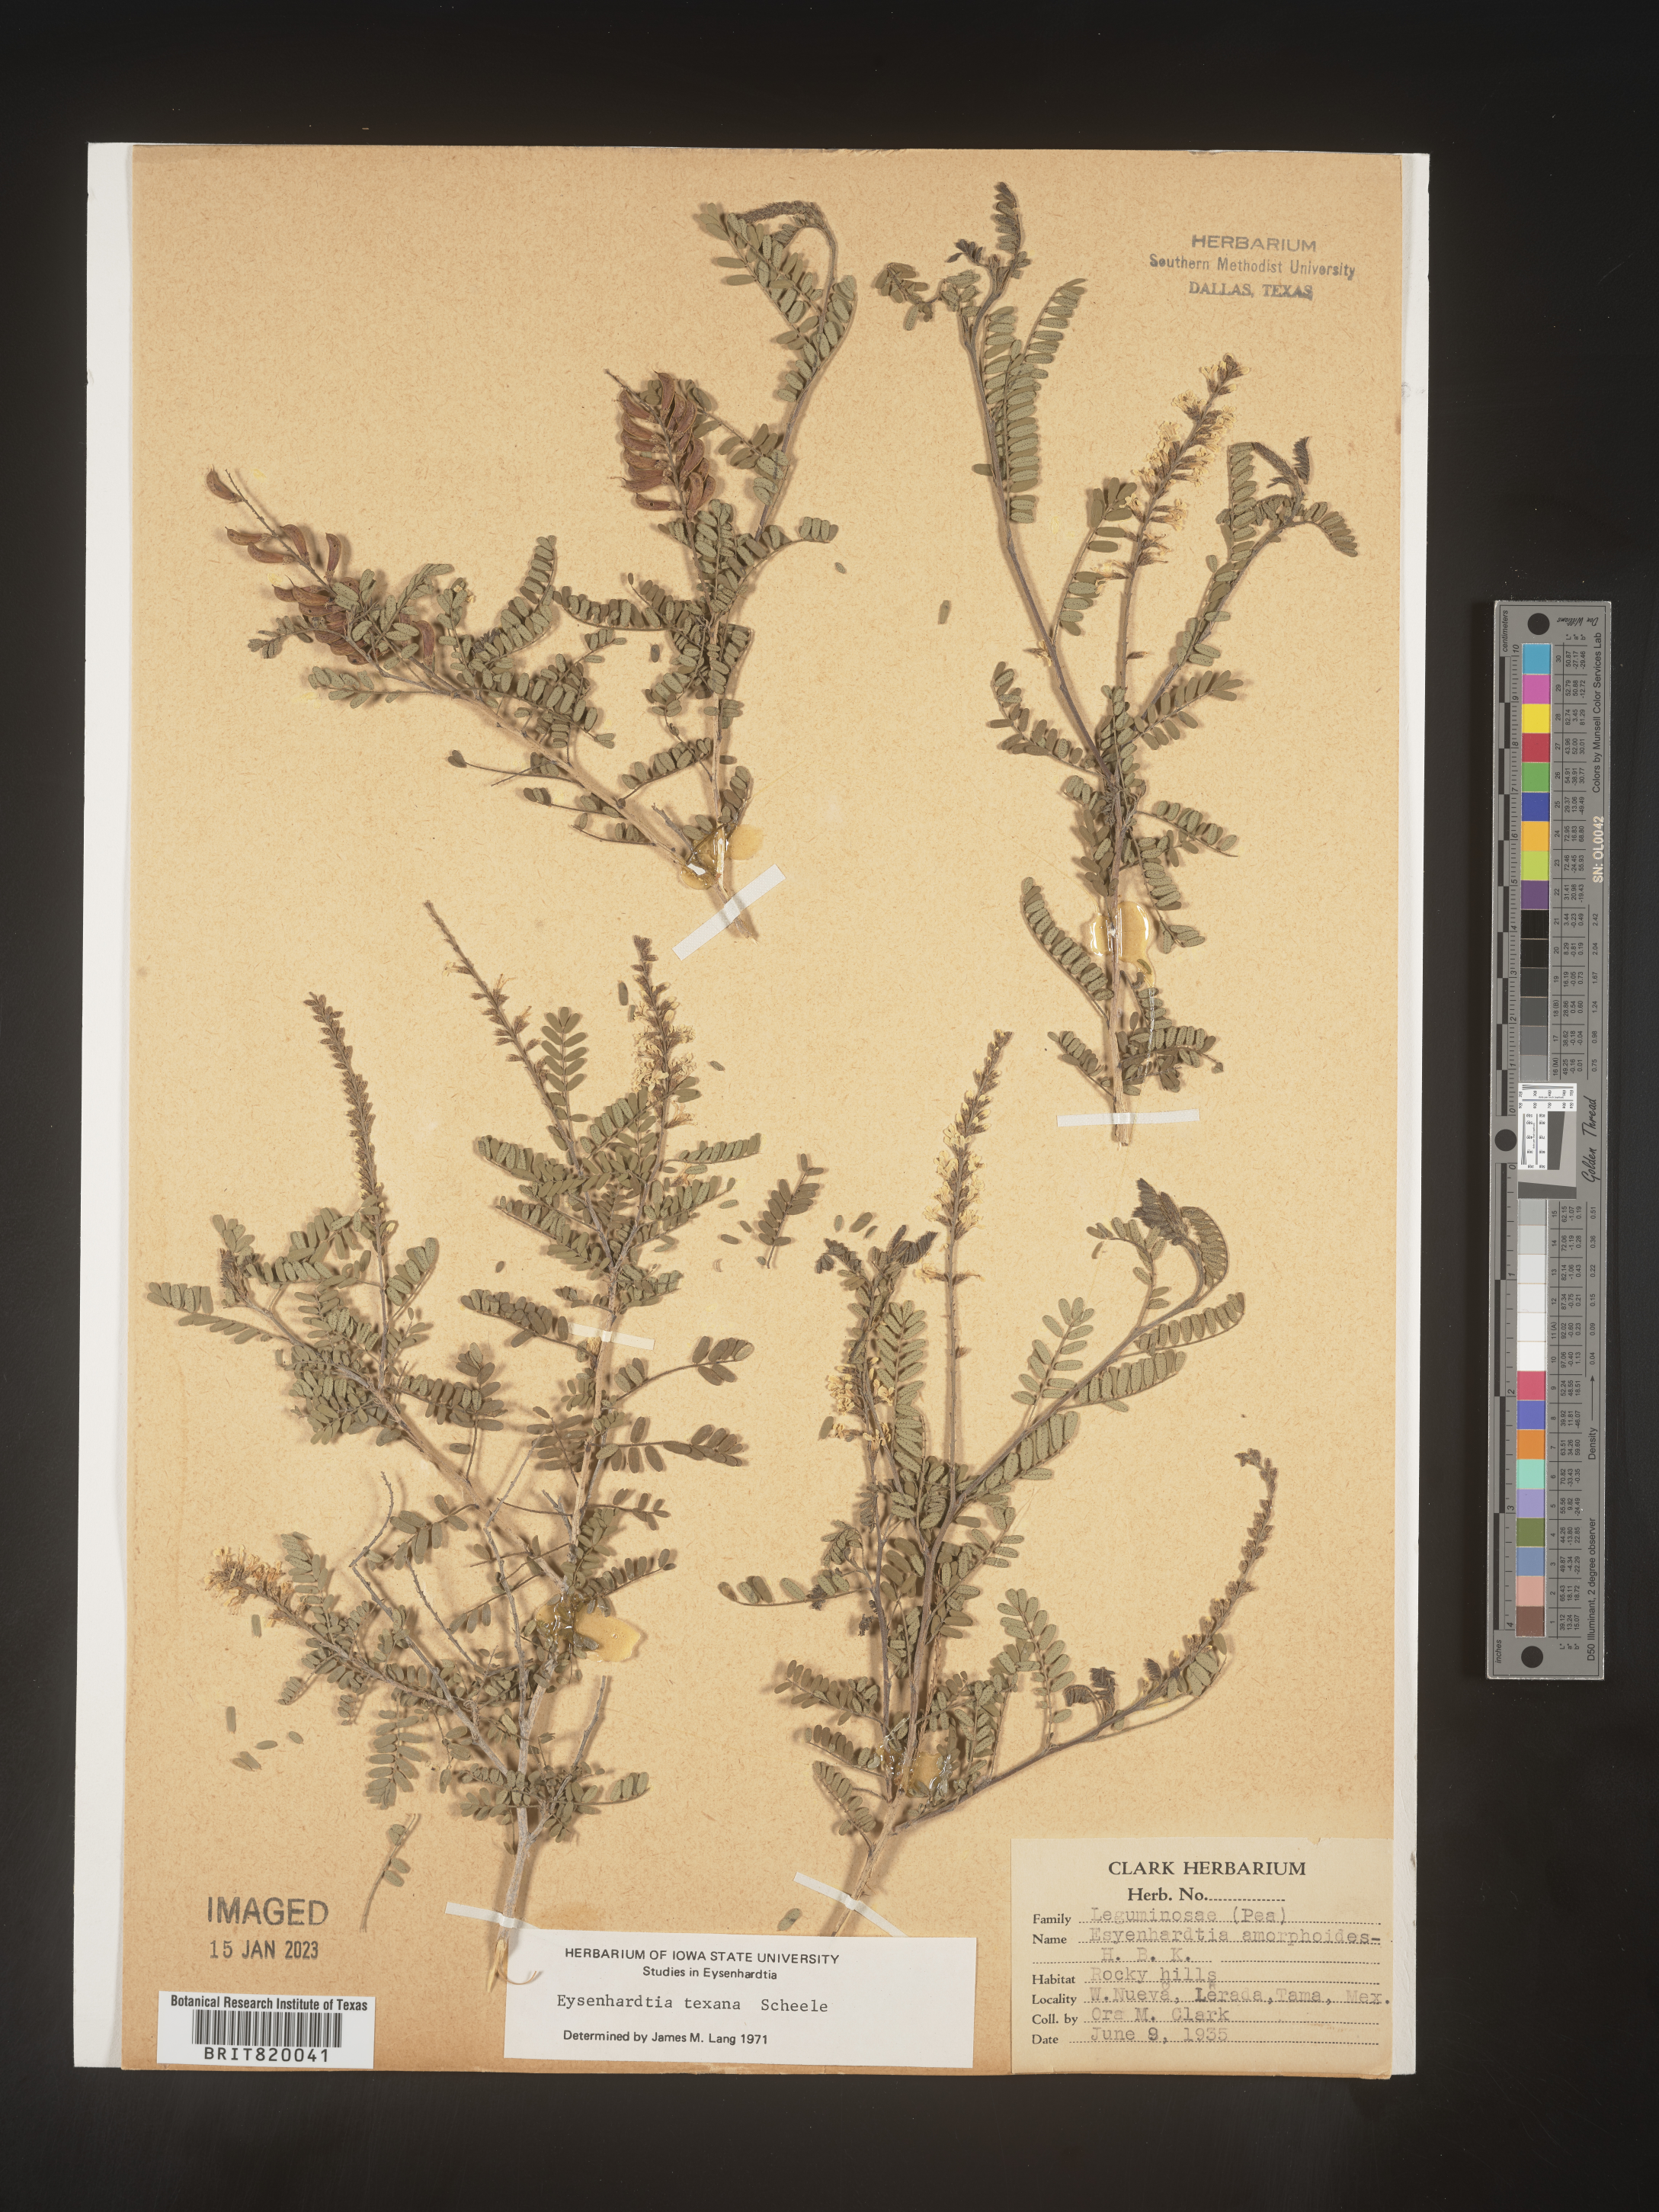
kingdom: Plantae
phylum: Tracheophyta
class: Magnoliopsida
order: Fabales
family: Fabaceae
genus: Eysenhardtia
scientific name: Eysenhardtia
